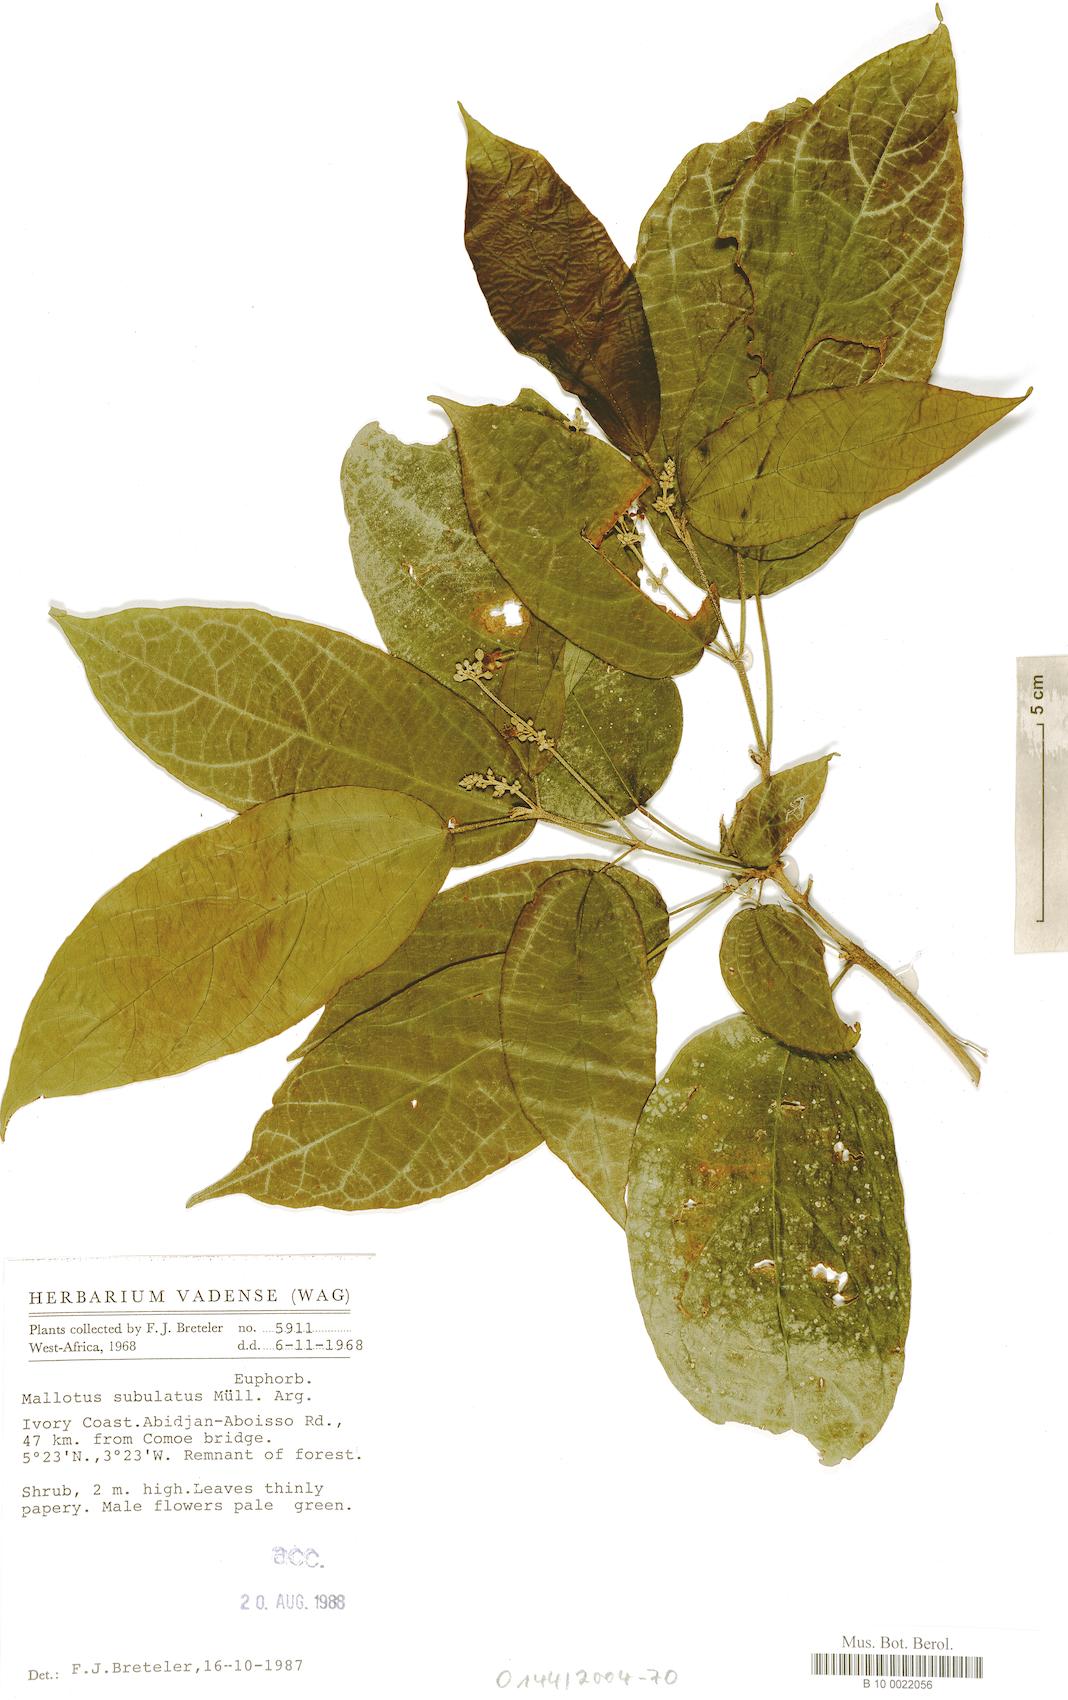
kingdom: Plantae
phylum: Tracheophyta
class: Magnoliopsida
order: Malpighiales
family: Euphorbiaceae
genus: Mallotus
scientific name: Mallotus subulatus
